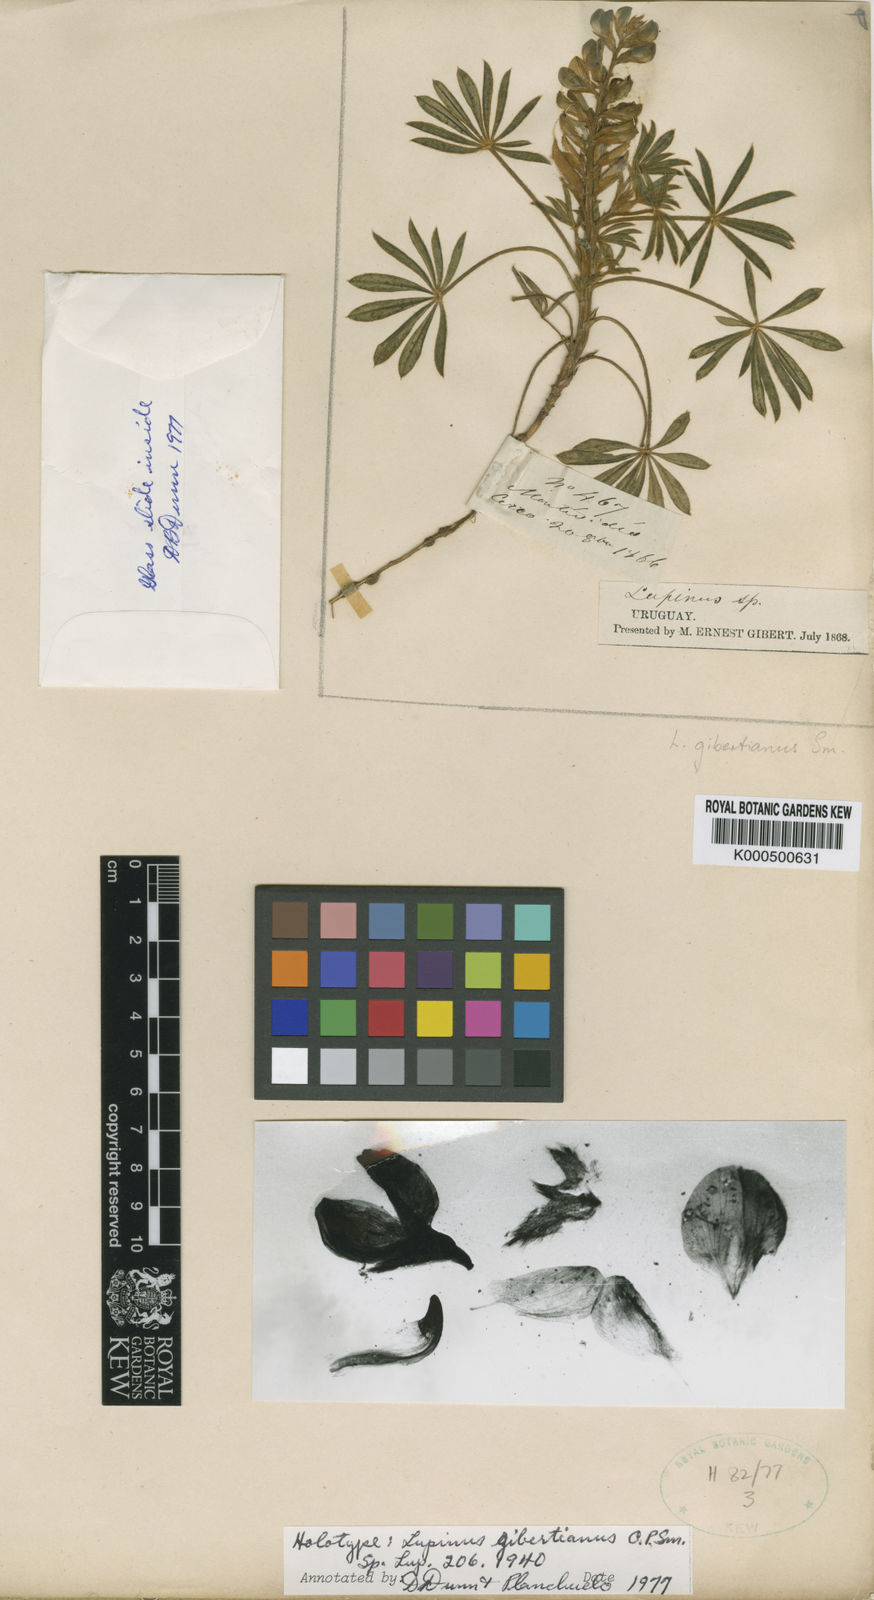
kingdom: Plantae
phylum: Tracheophyta
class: Magnoliopsida
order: Fabales
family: Fabaceae
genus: Lupinus
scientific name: Lupinus gibertianus
